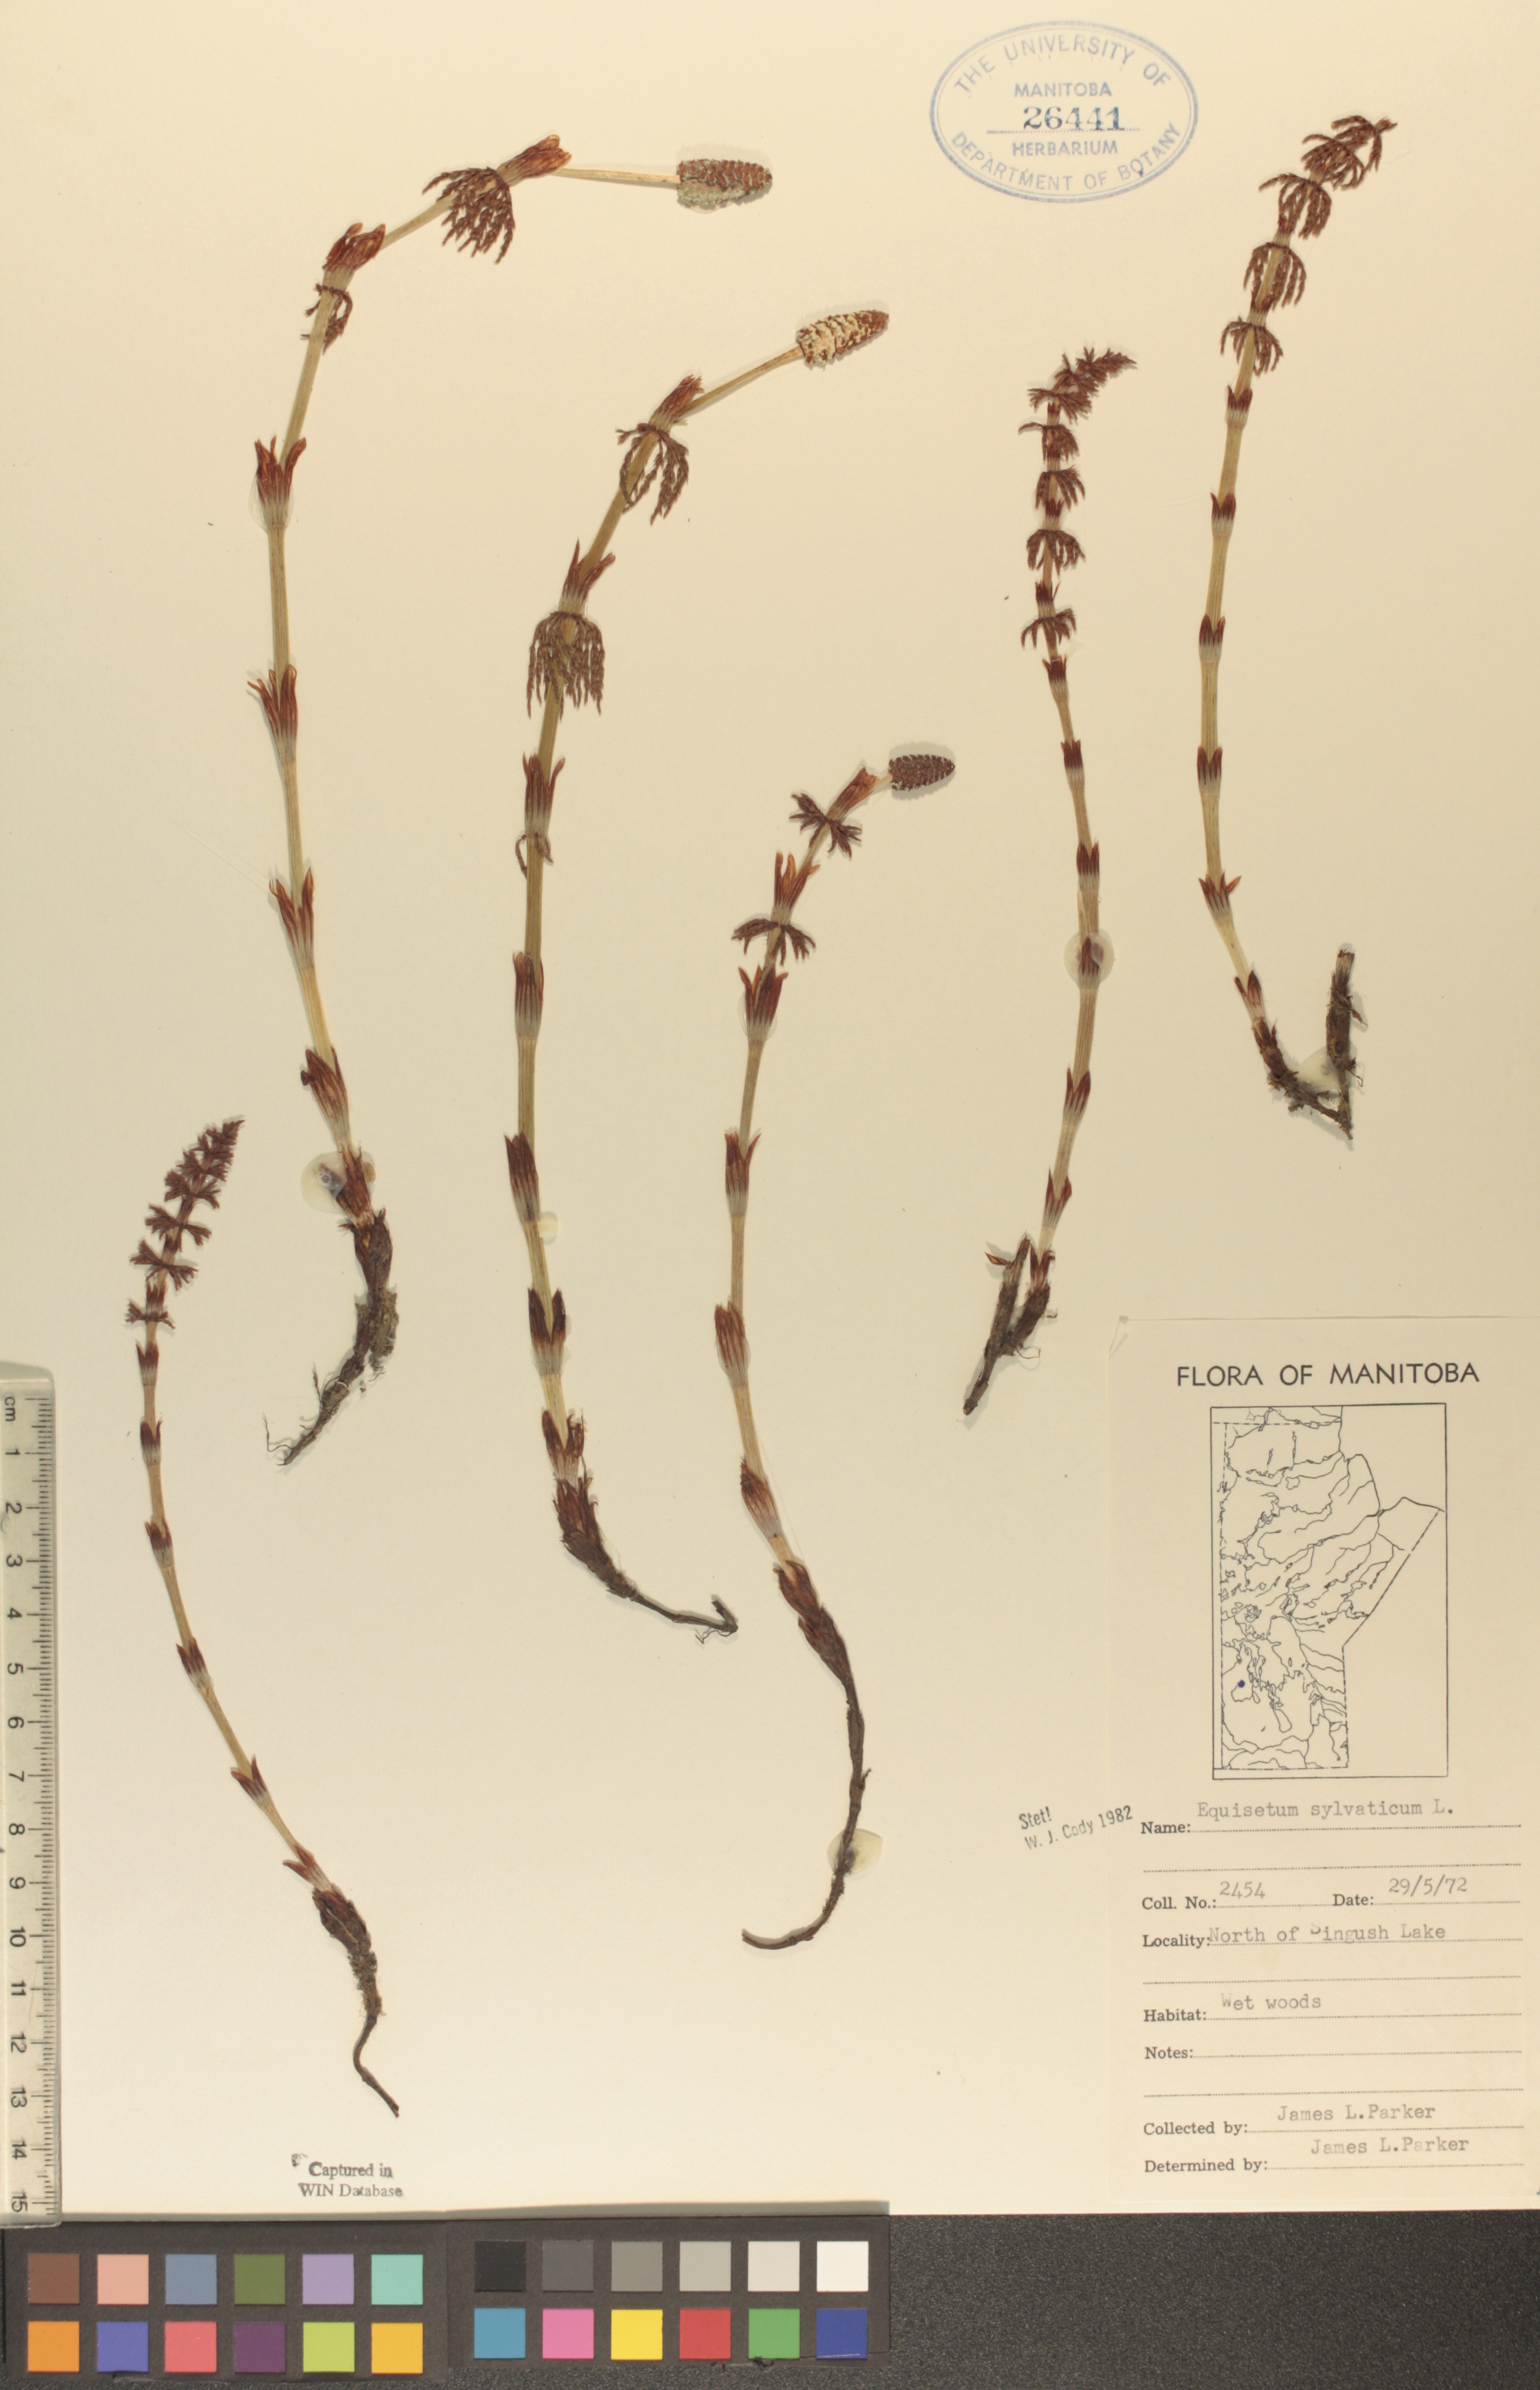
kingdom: Plantae
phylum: Tracheophyta
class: Polypodiopsida
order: Equisetales
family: Equisetaceae
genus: Equisetum
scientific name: Equisetum sylvaticum
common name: Wood horsetail
